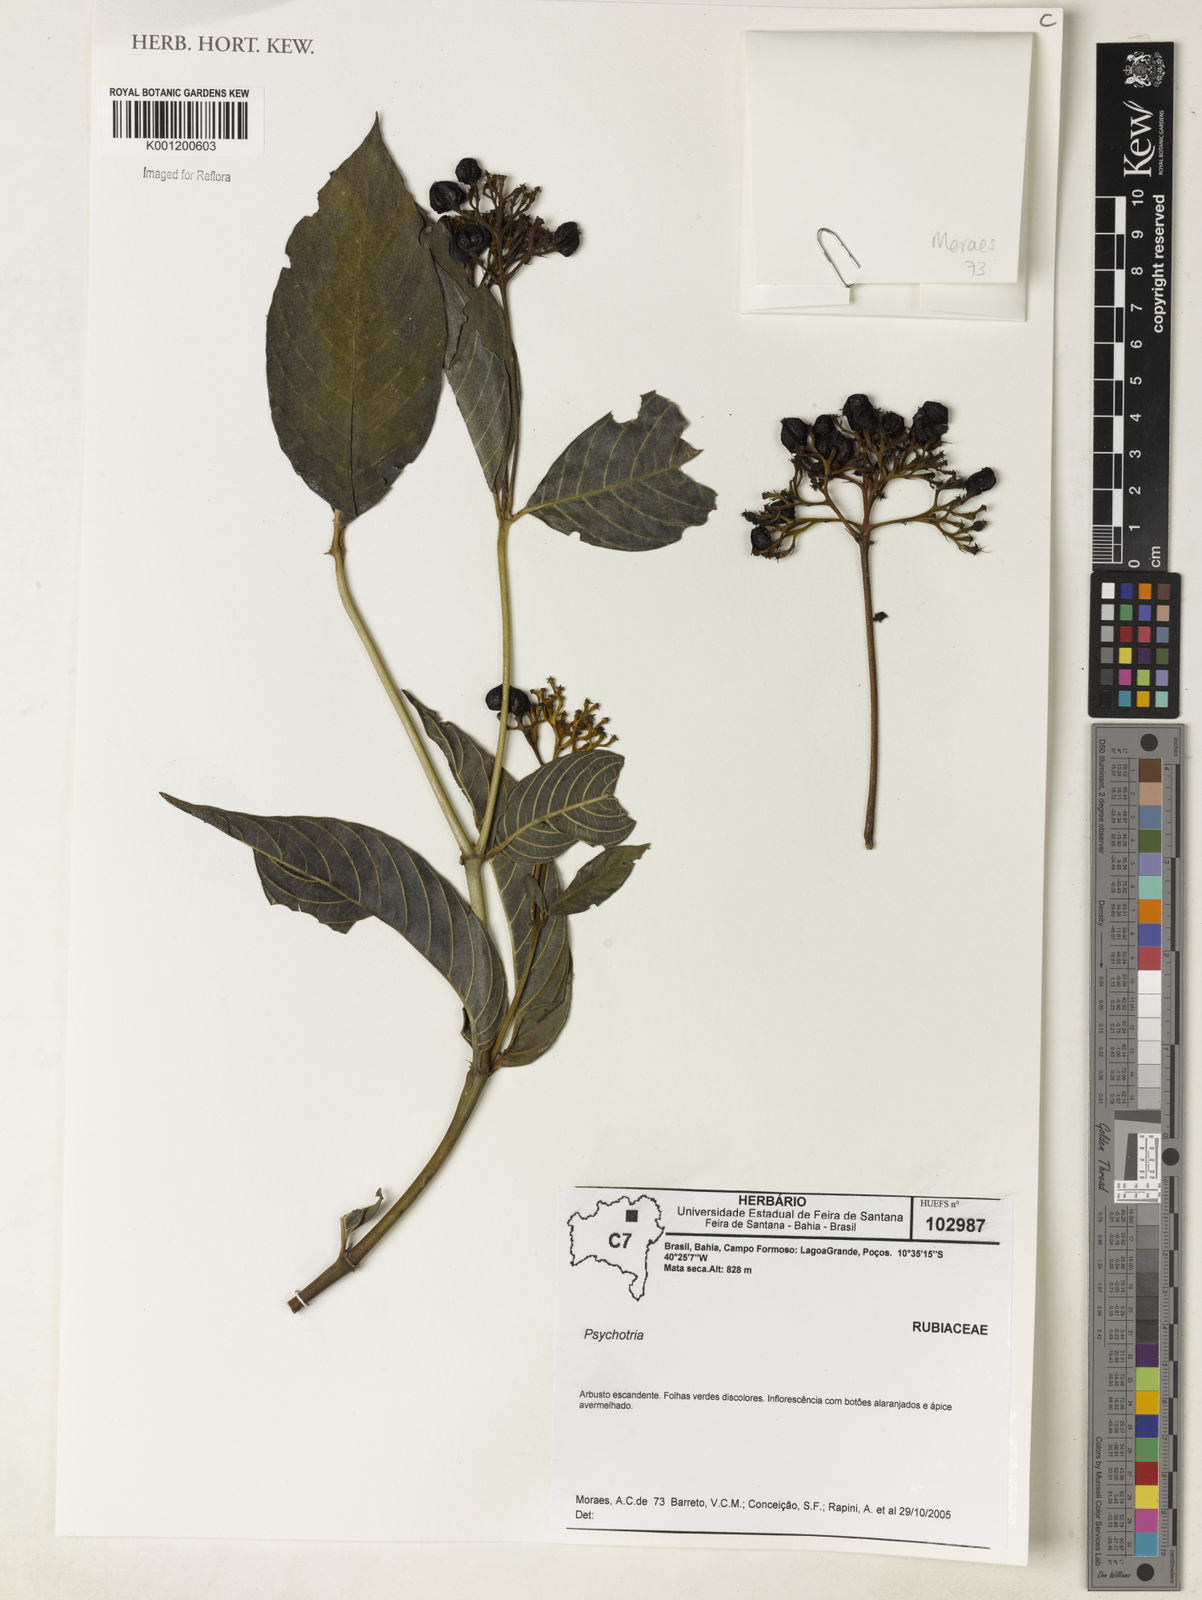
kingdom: Plantae
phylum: Tracheophyta
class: Magnoliopsida
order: Gentianales
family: Rubiaceae
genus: Psychotria
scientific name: Psychotria
